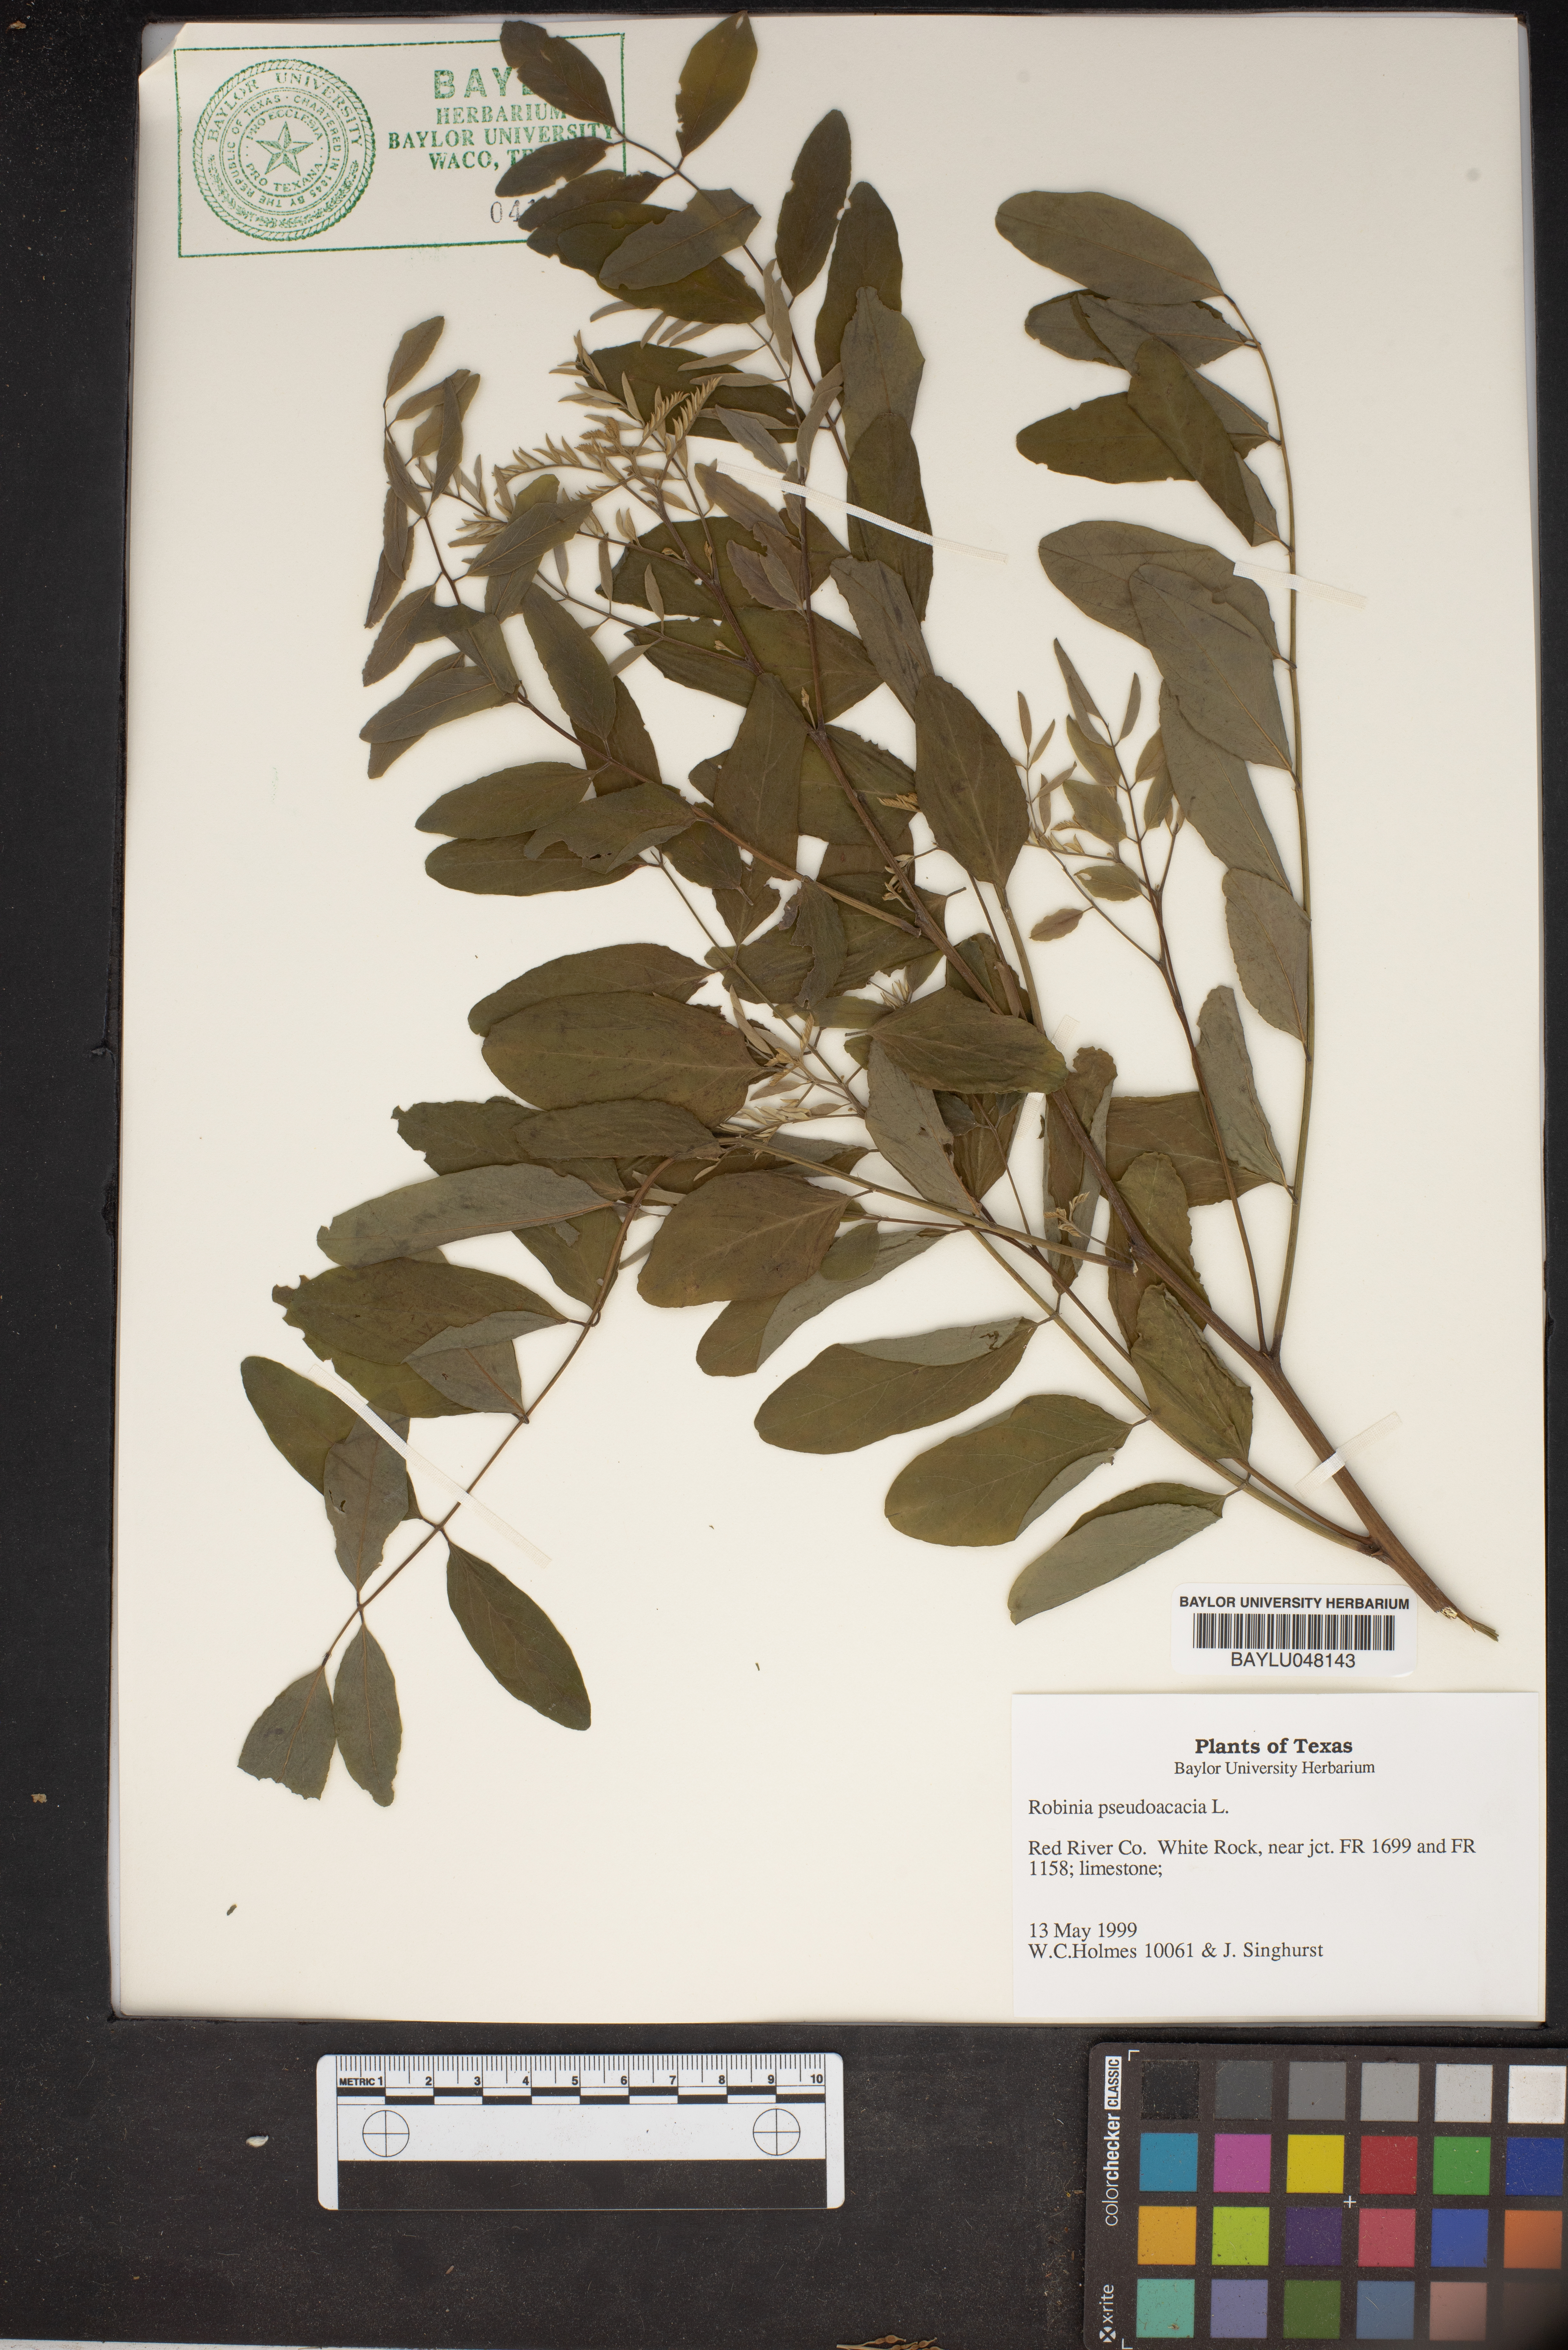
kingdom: Plantae
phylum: Tracheophyta
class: Magnoliopsida
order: Fabales
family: Fabaceae
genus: Robinia
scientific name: Robinia pseudoacacia
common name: Black locust
